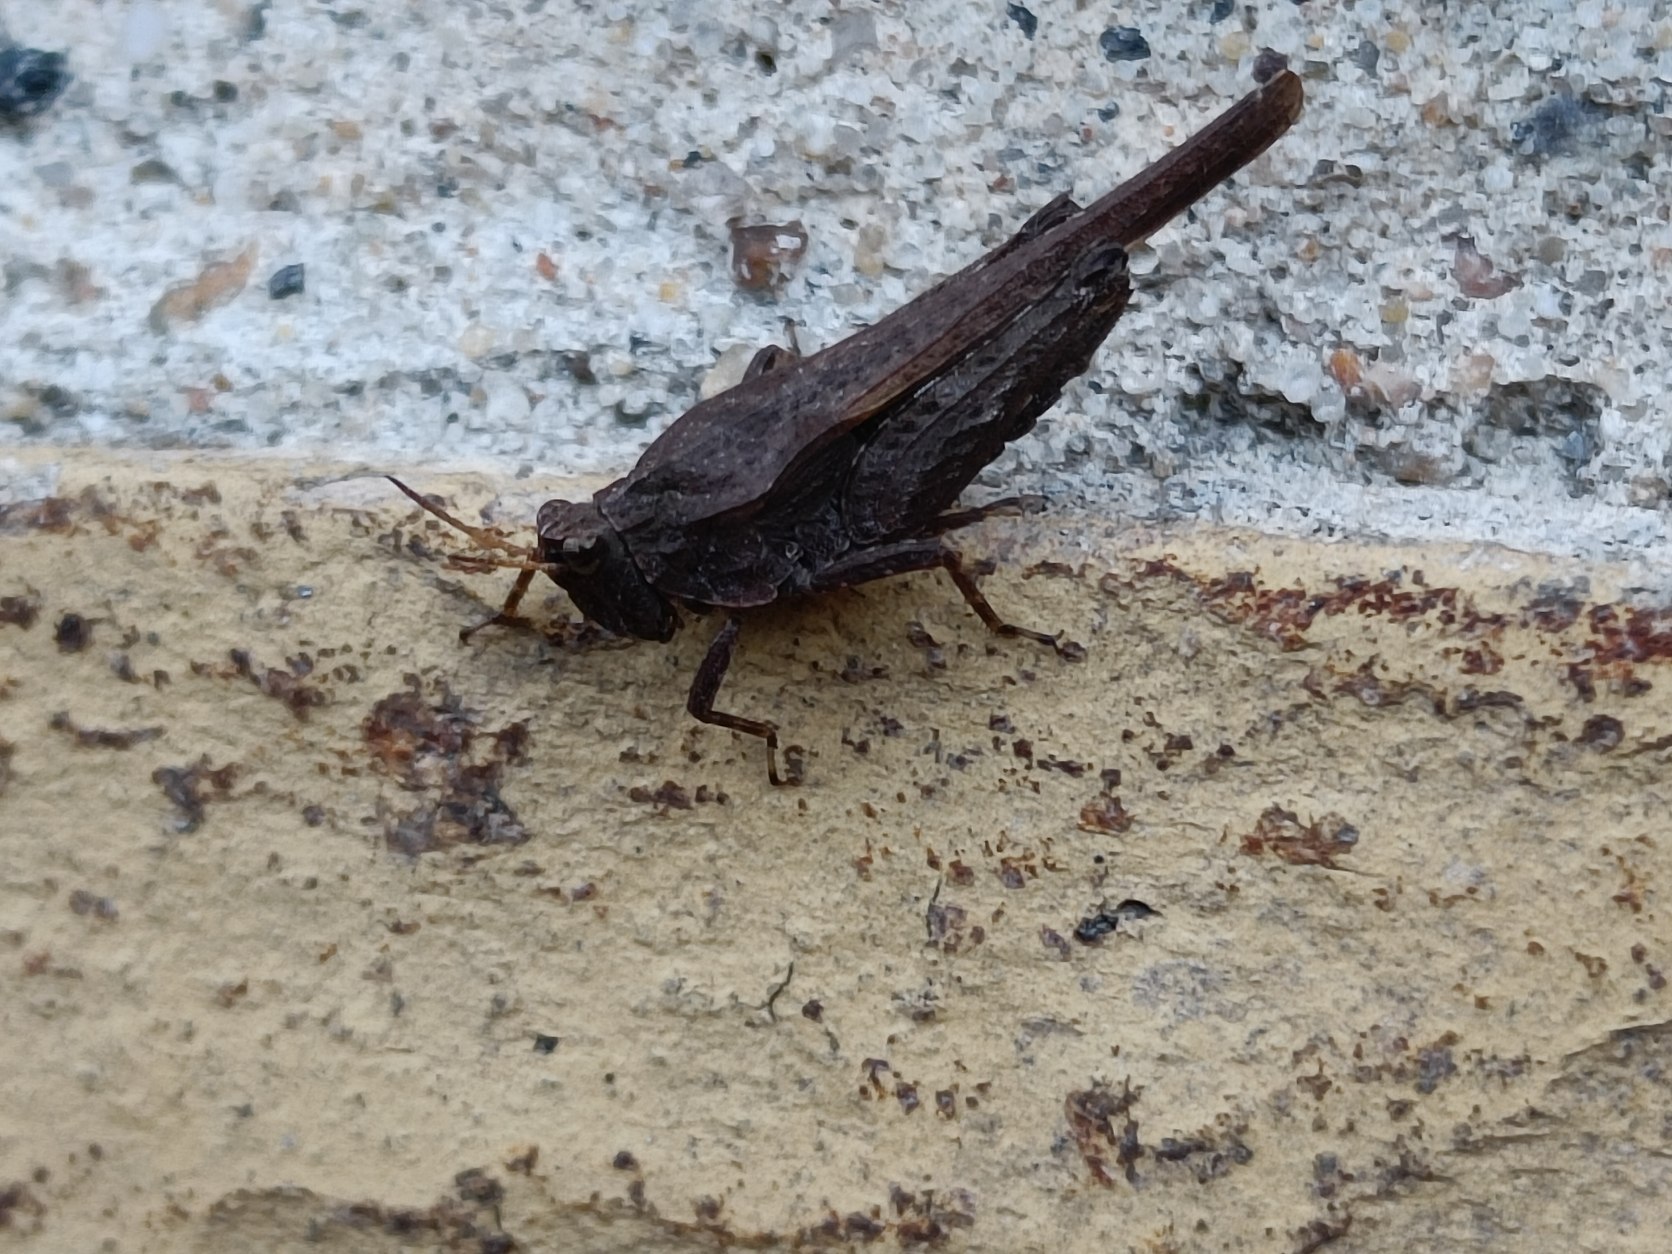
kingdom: Animalia
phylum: Arthropoda
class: Insecta
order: Orthoptera
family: Tetrigidae
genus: Tetrix
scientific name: Tetrix subulata
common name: Sump-torngræshoppe
